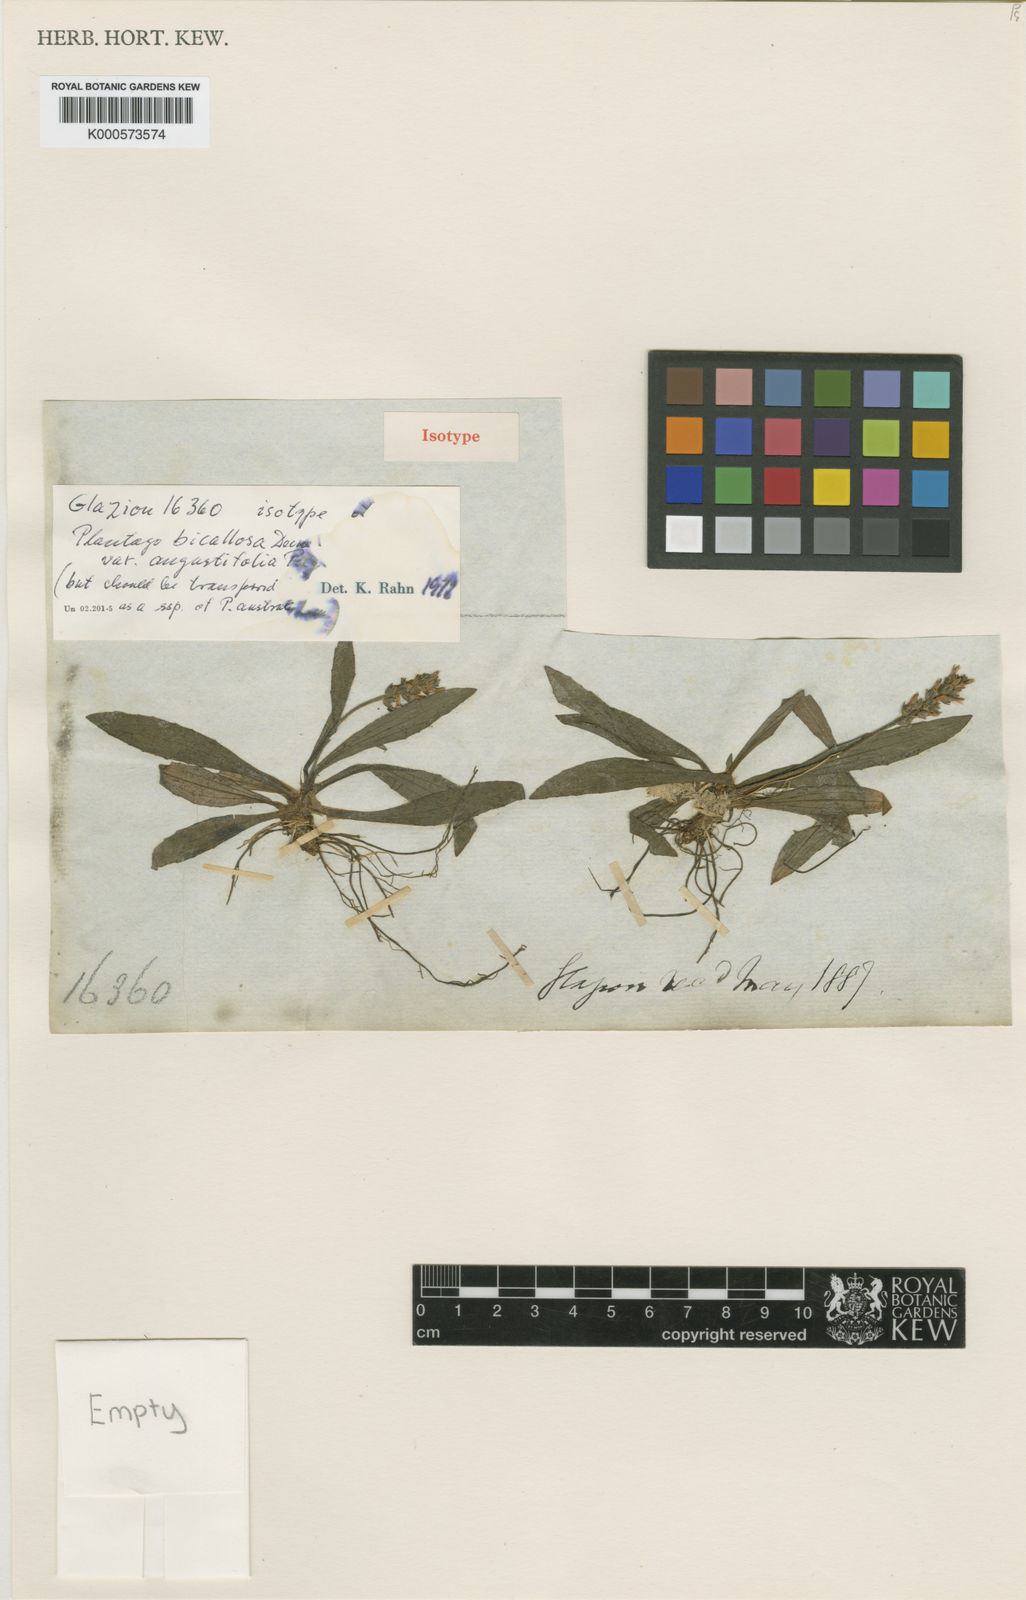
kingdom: Plantae
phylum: Tracheophyta
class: Magnoliopsida
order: Lamiales
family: Plantaginaceae
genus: Plantago
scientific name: Plantago australis
